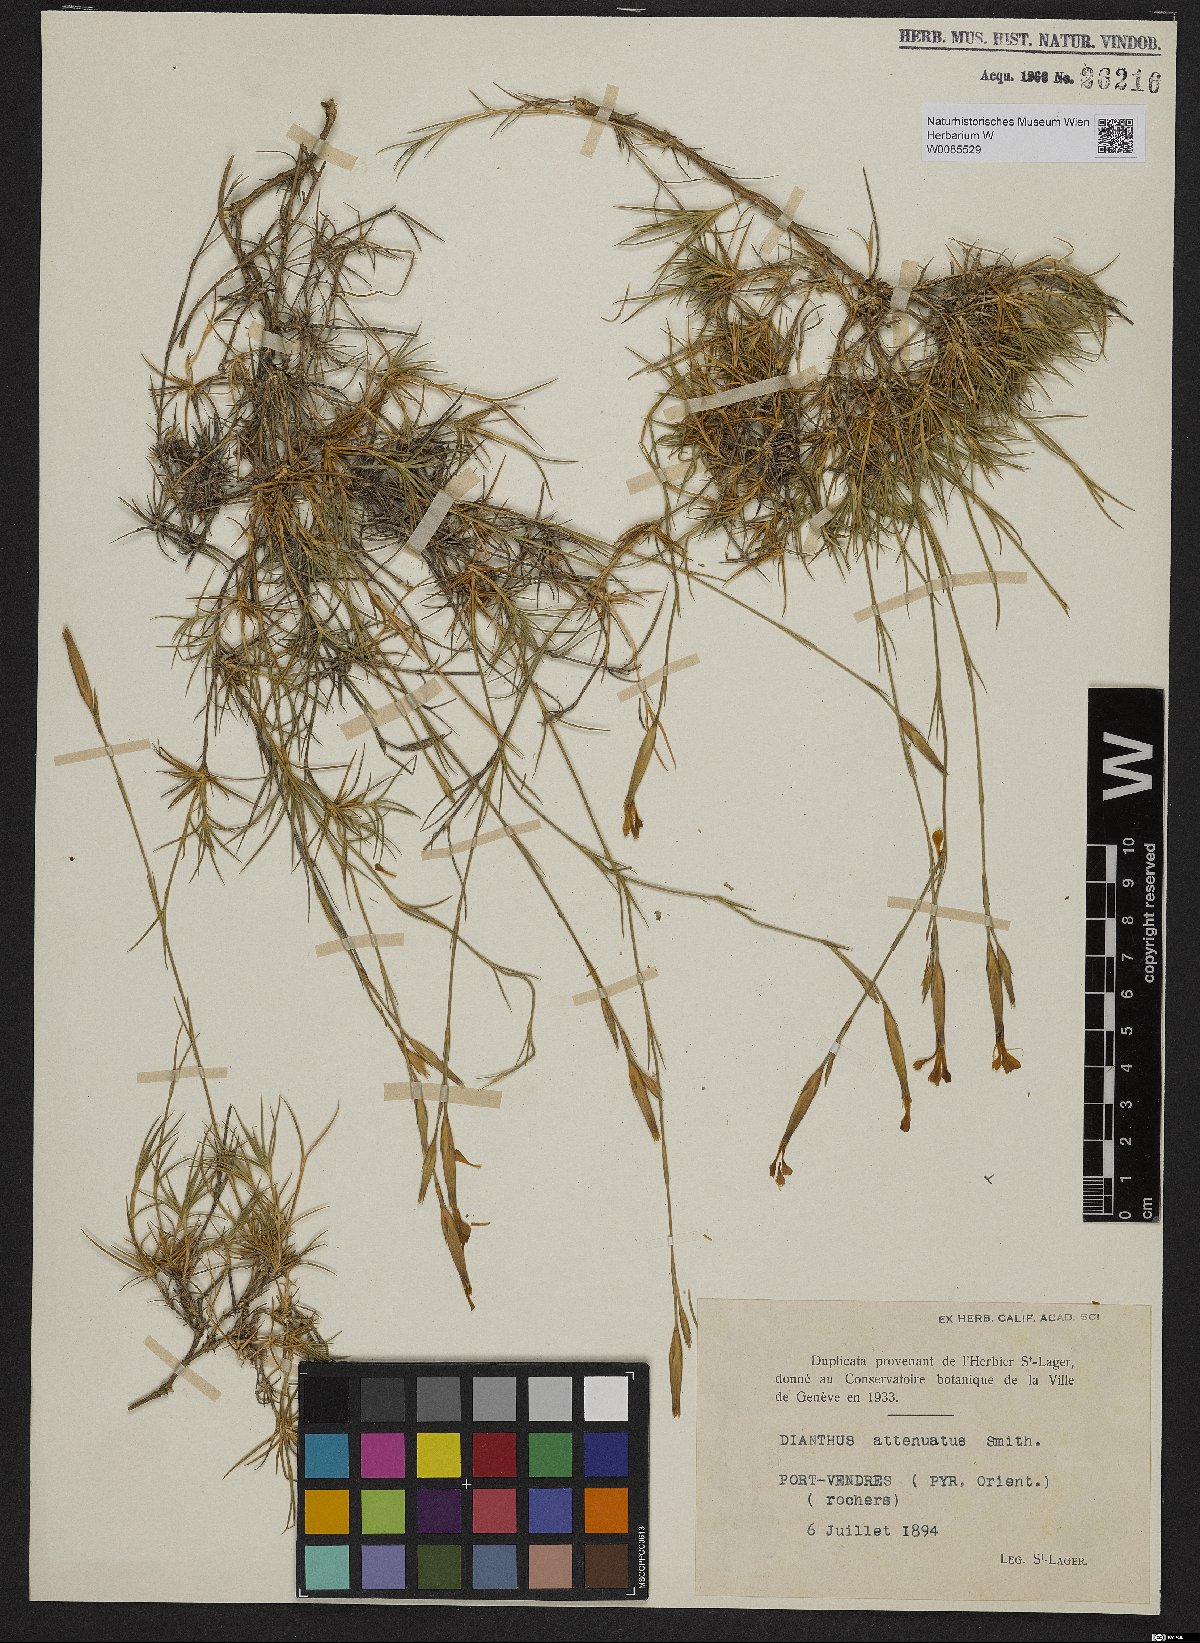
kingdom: Plantae
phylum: Tracheophyta
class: Magnoliopsida
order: Caryophyllales
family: Caryophyllaceae
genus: Dianthus
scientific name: Dianthus pyrenaicus
